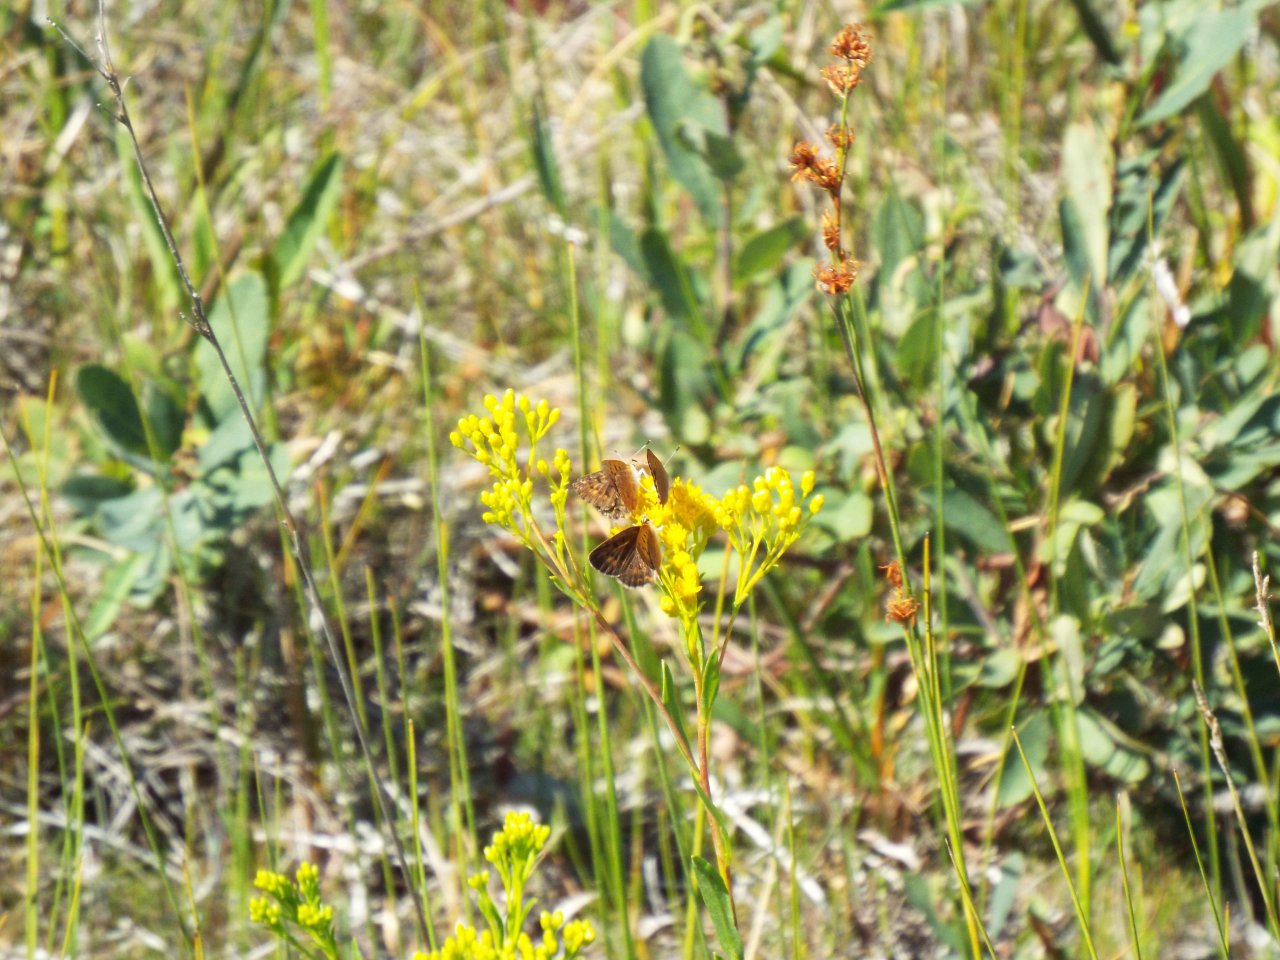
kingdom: Animalia
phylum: Arthropoda
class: Insecta
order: Lepidoptera
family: Lycaenidae
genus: Epidemia
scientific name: Epidemia dorcas
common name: Dorcas Copper
